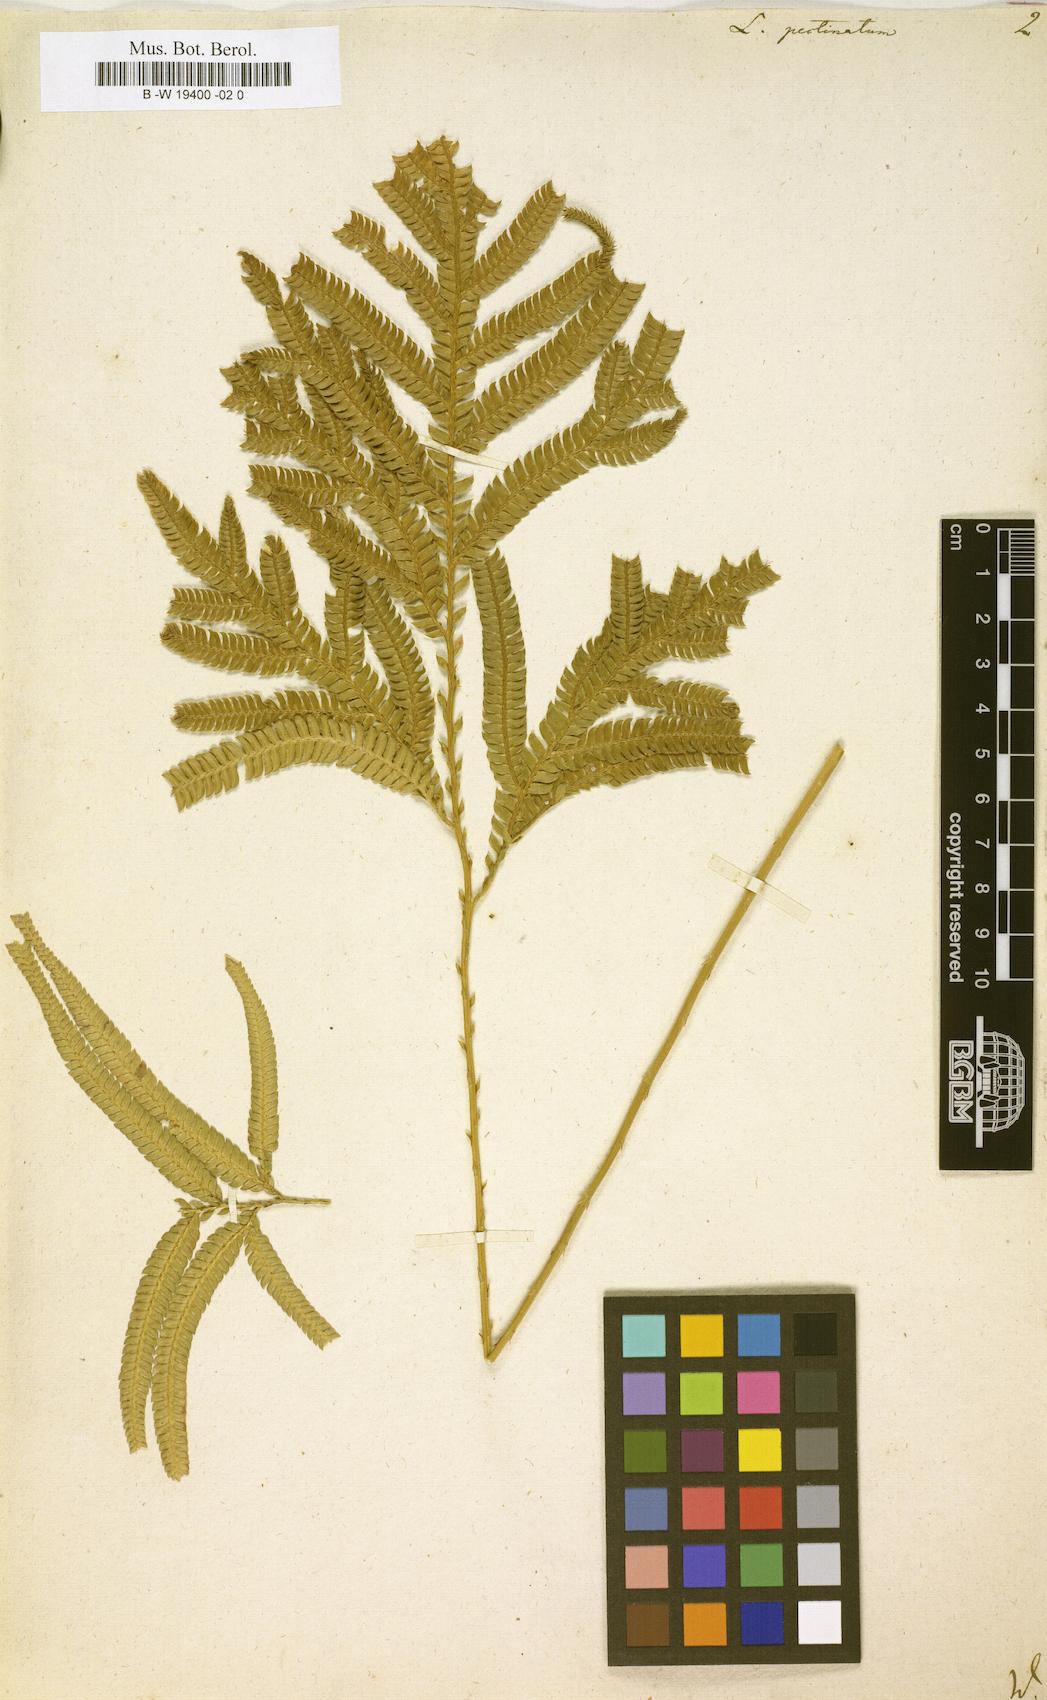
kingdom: Plantae
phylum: Tracheophyta
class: Lycopodiopsida
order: Selaginellales
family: Selaginellaceae
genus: Selaginella
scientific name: Selaginella
